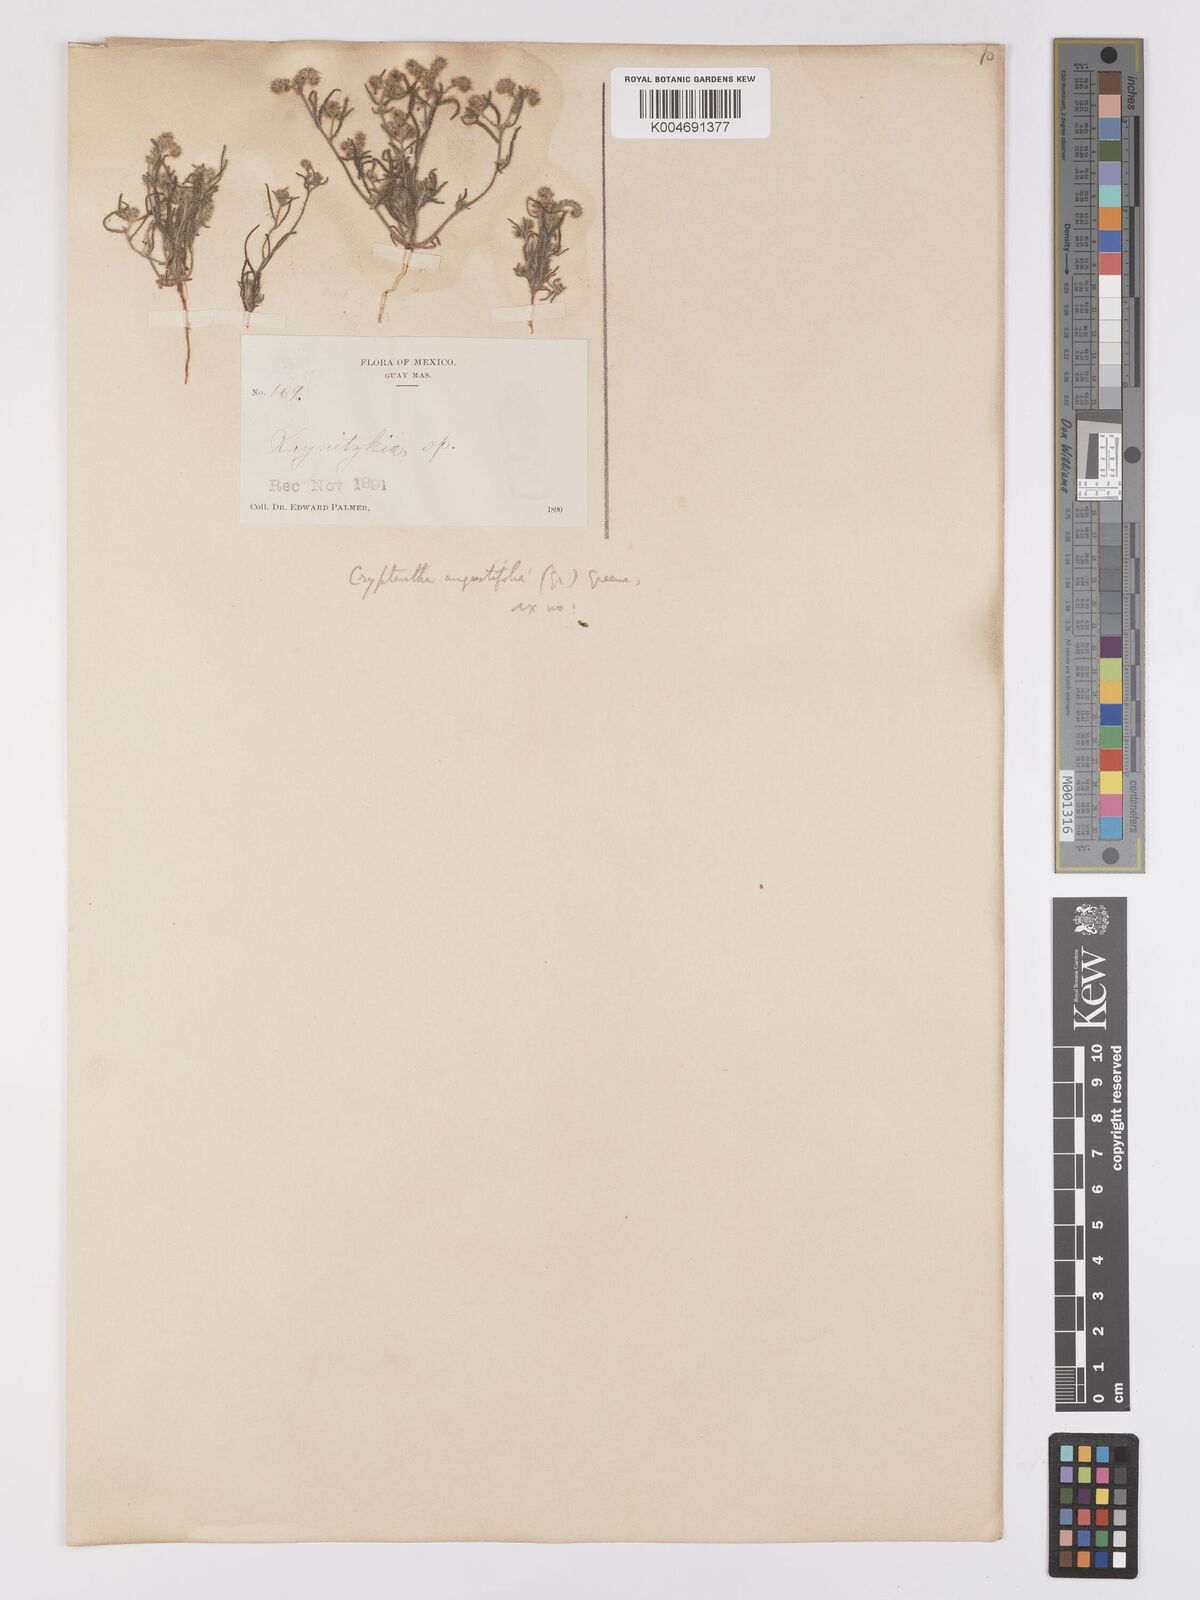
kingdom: Plantae
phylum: Tracheophyta
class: Magnoliopsida
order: Boraginales
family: Boraginaceae
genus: Johnstonella
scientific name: Johnstonella angustifolia
